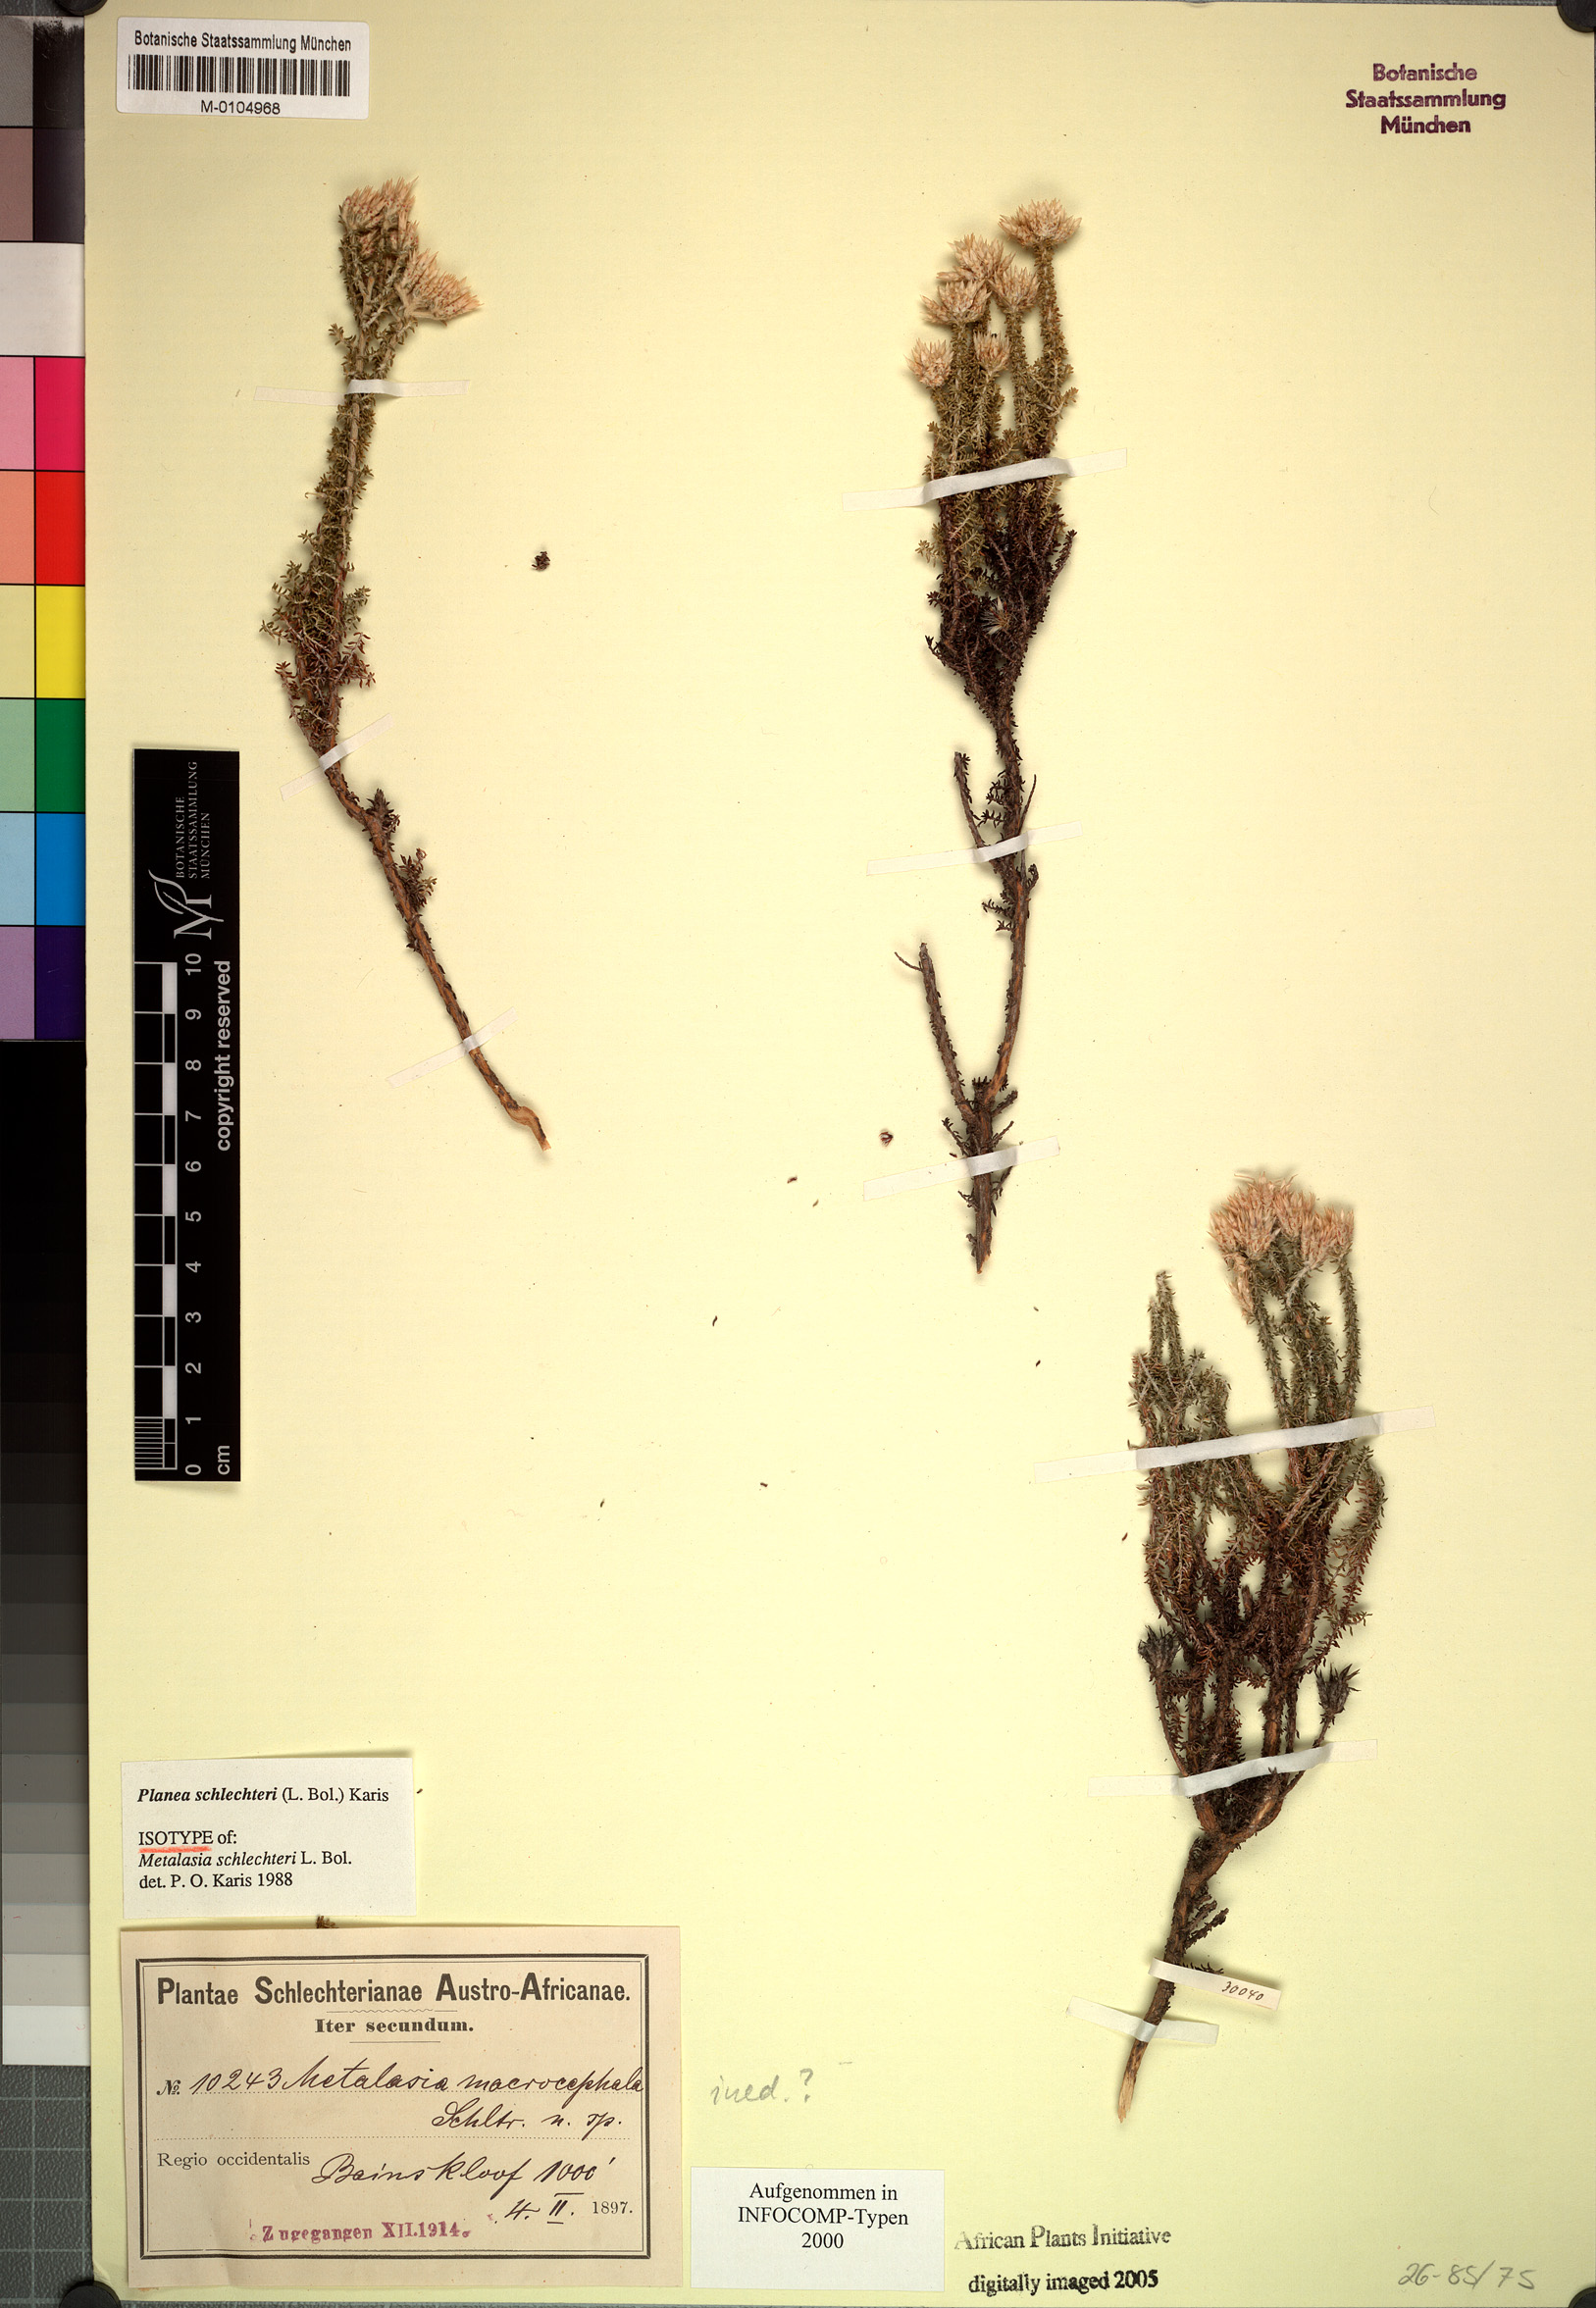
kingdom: Plantae
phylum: Tracheophyta
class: Magnoliopsida
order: Asterales
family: Asteraceae
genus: Planea
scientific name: Planea schlechteri
